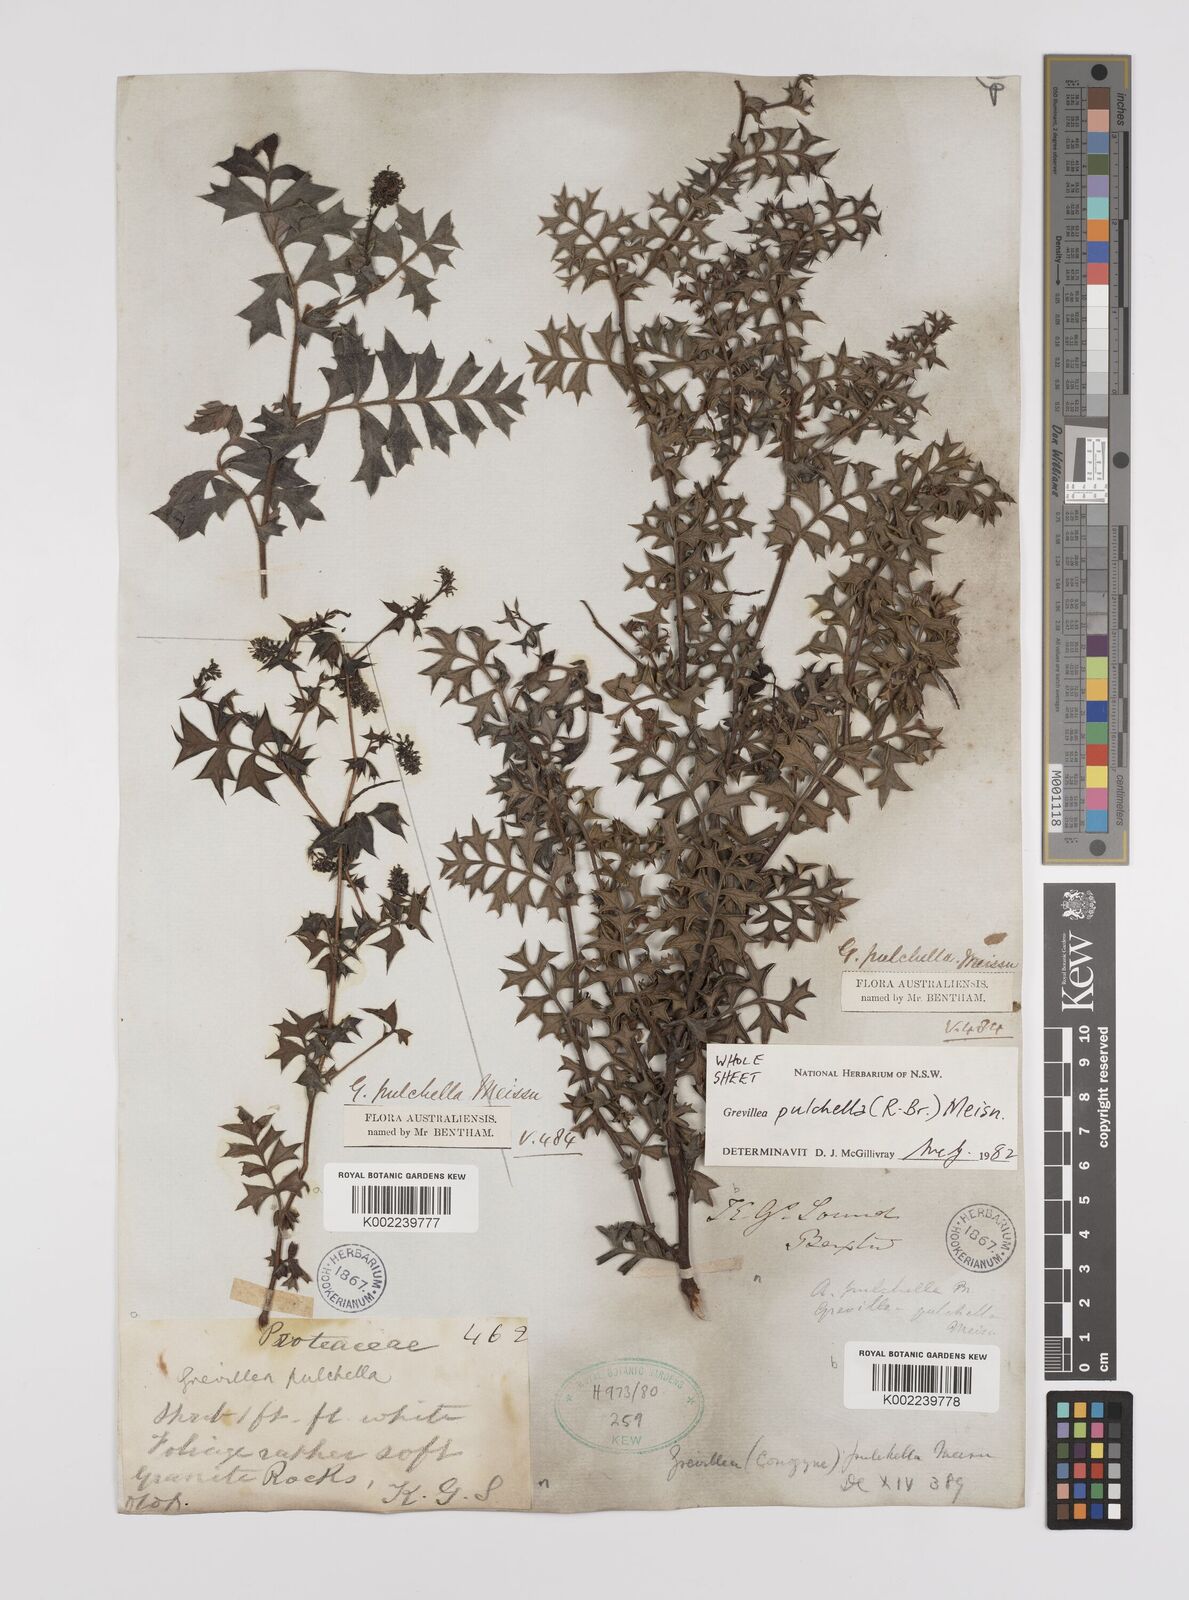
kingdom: Plantae
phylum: Tracheophyta
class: Magnoliopsida
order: Proteales
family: Proteaceae
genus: Grevillea
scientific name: Grevillea pulchella
